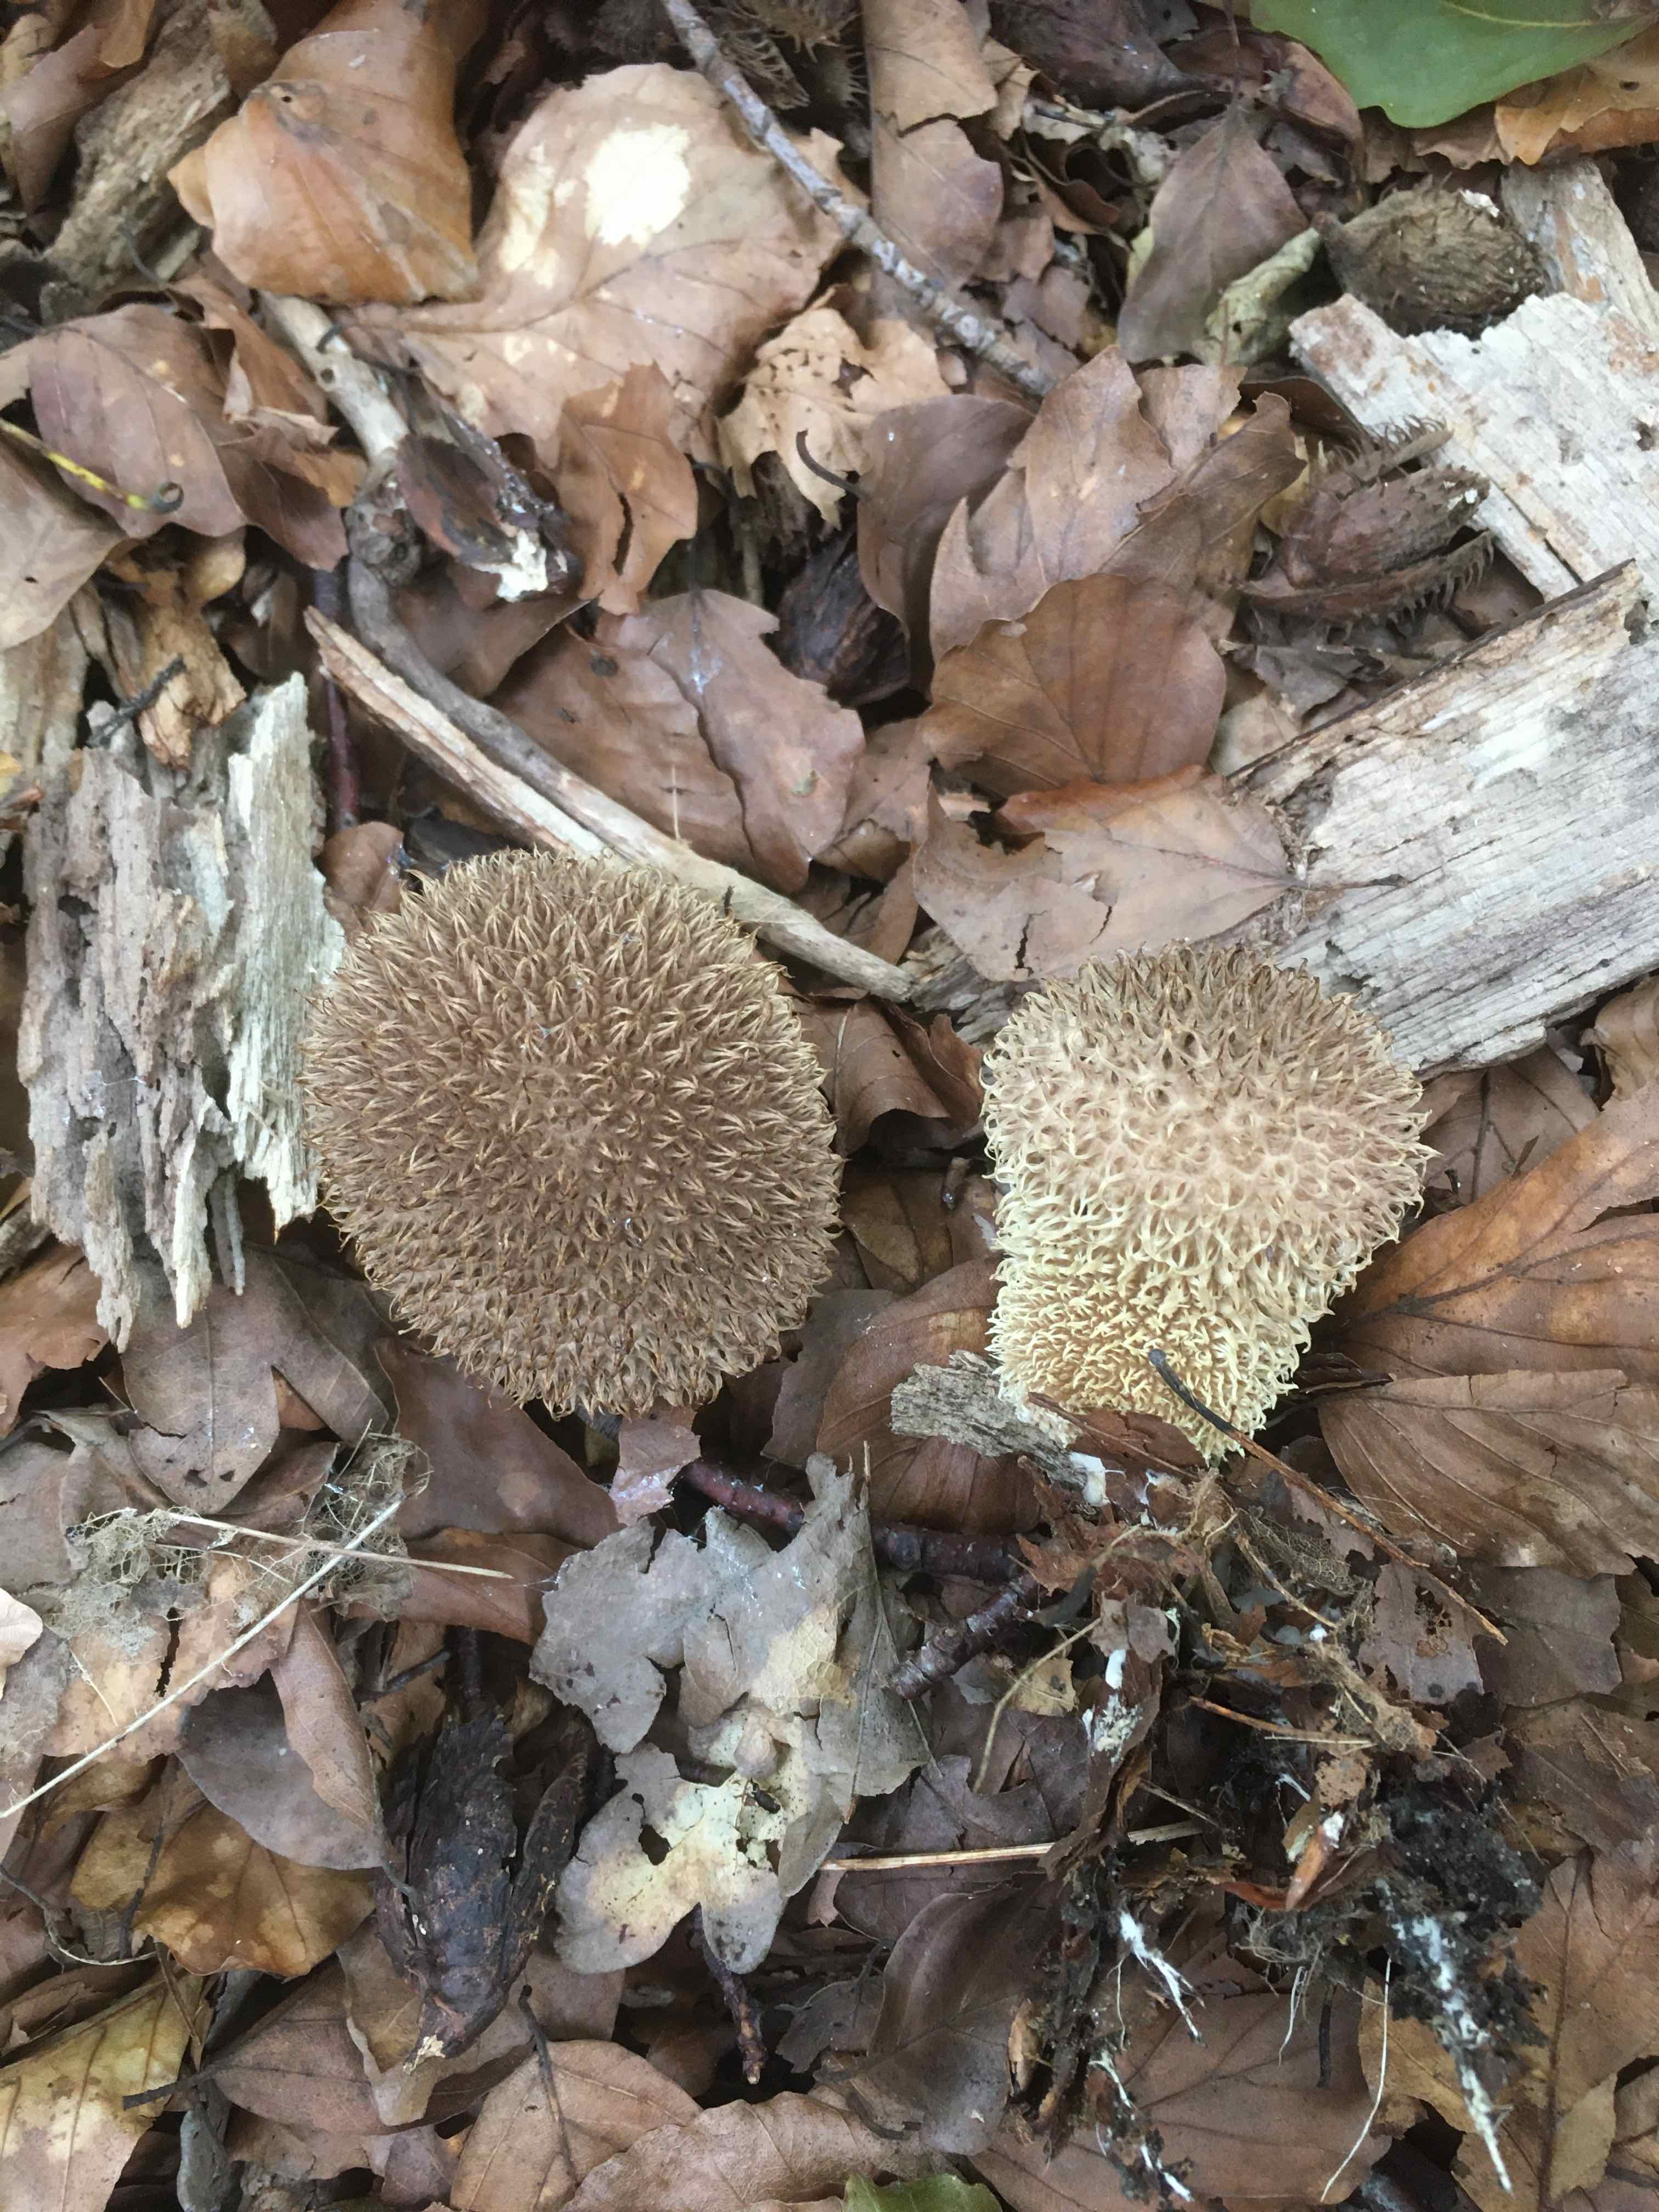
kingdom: Fungi
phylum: Basidiomycota
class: Agaricomycetes
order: Agaricales
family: Lycoperdaceae
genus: Lycoperdon
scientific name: Lycoperdon echinatum
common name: pindsvine-støvbold
